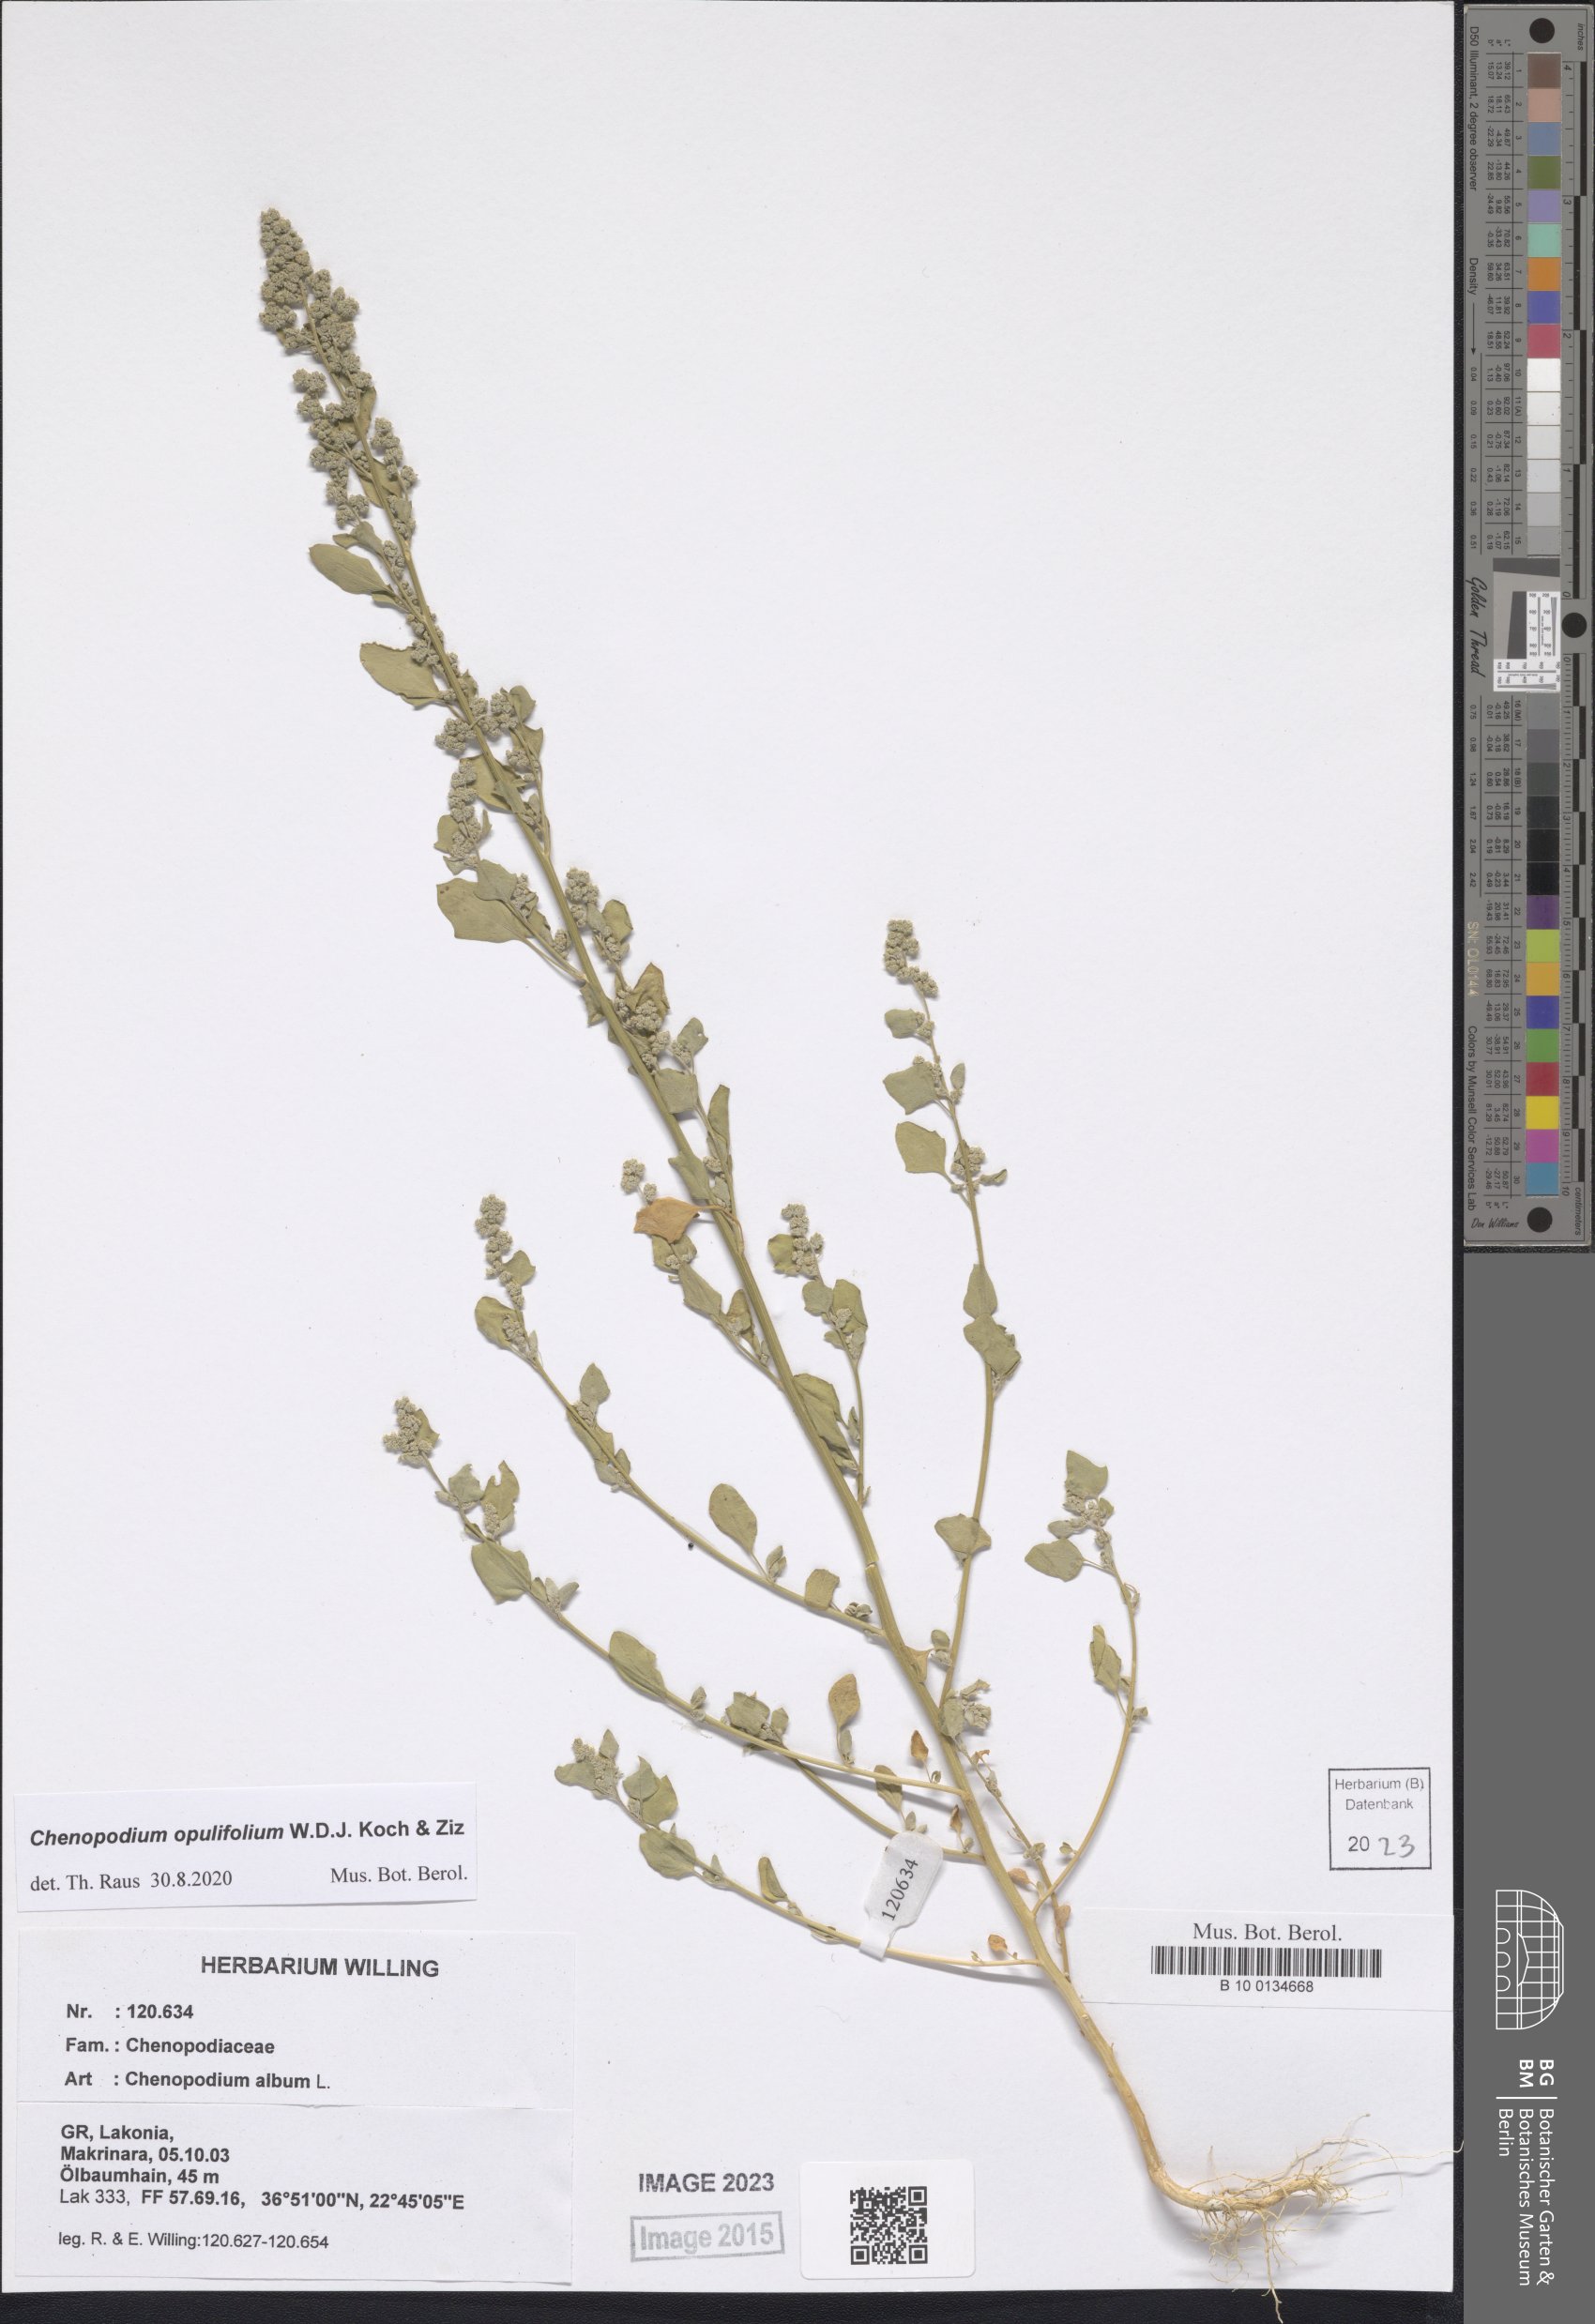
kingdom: Plantae
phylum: Tracheophyta
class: Magnoliopsida
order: Caryophyllales
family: Amaranthaceae
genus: Chenopodium
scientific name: Chenopodium opulifolium
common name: Grey goosefoot
